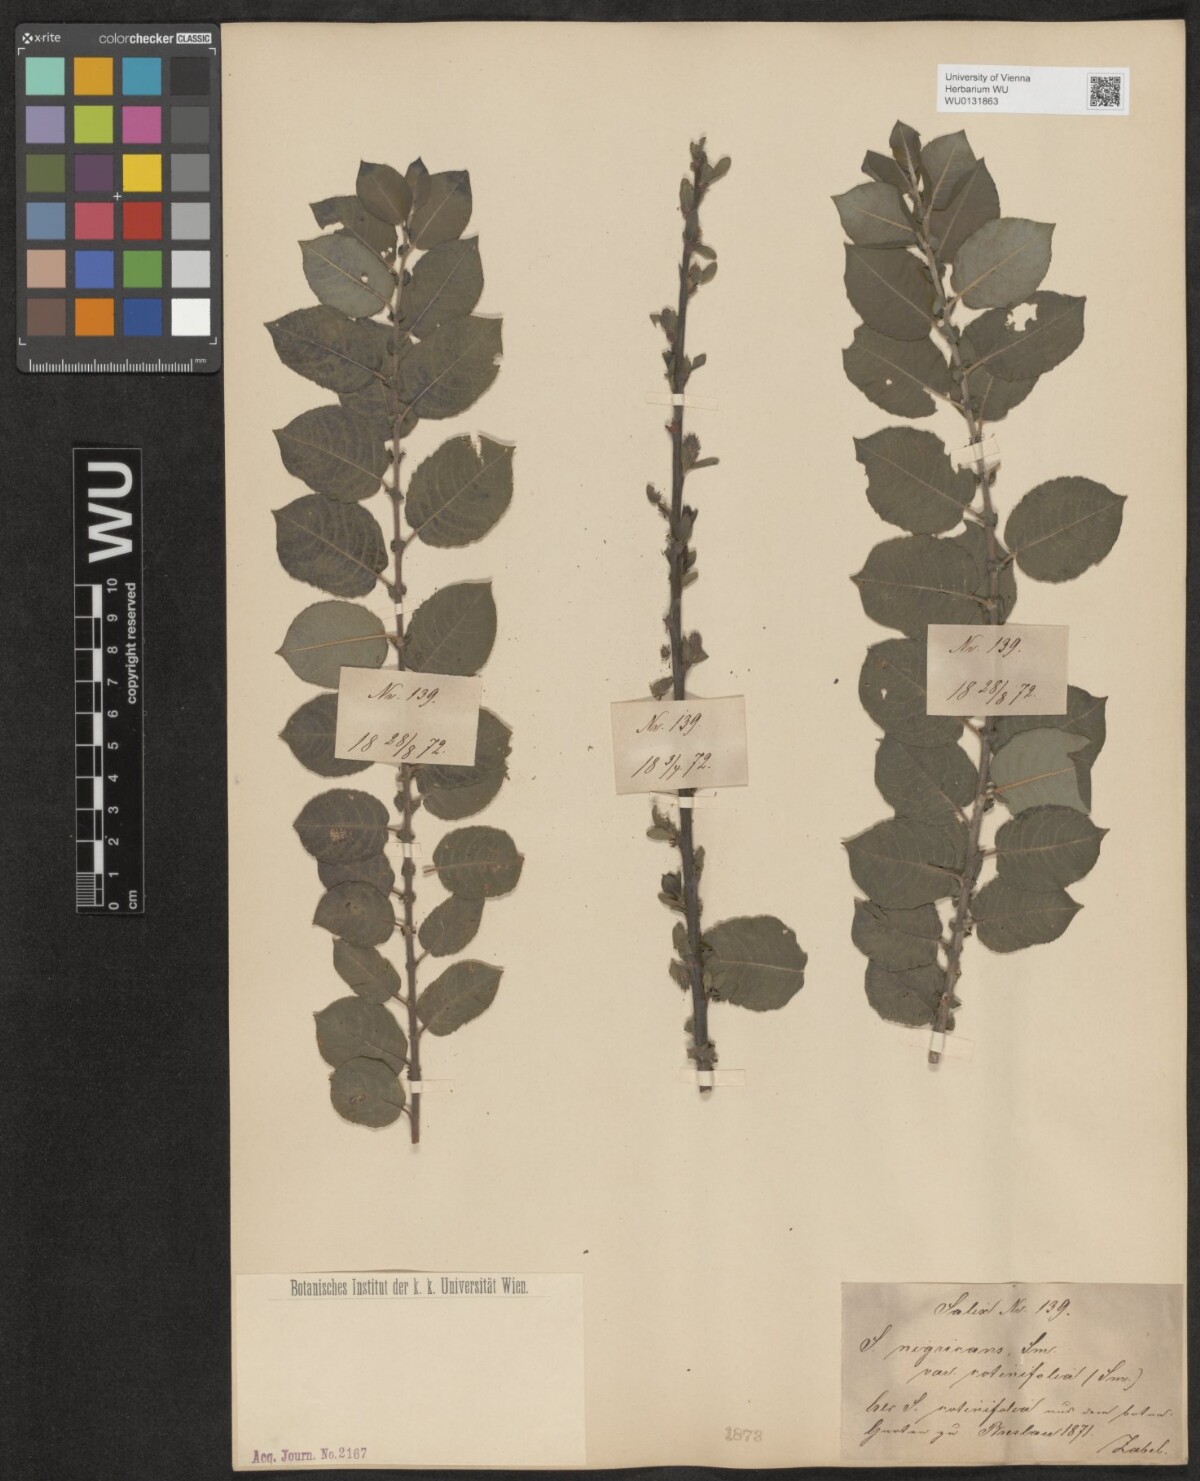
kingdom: Plantae
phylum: Tracheophyta
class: Magnoliopsida
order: Malpighiales
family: Salicaceae
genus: Salix
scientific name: Salix myrsinifolia
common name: Dark-leaved willow
